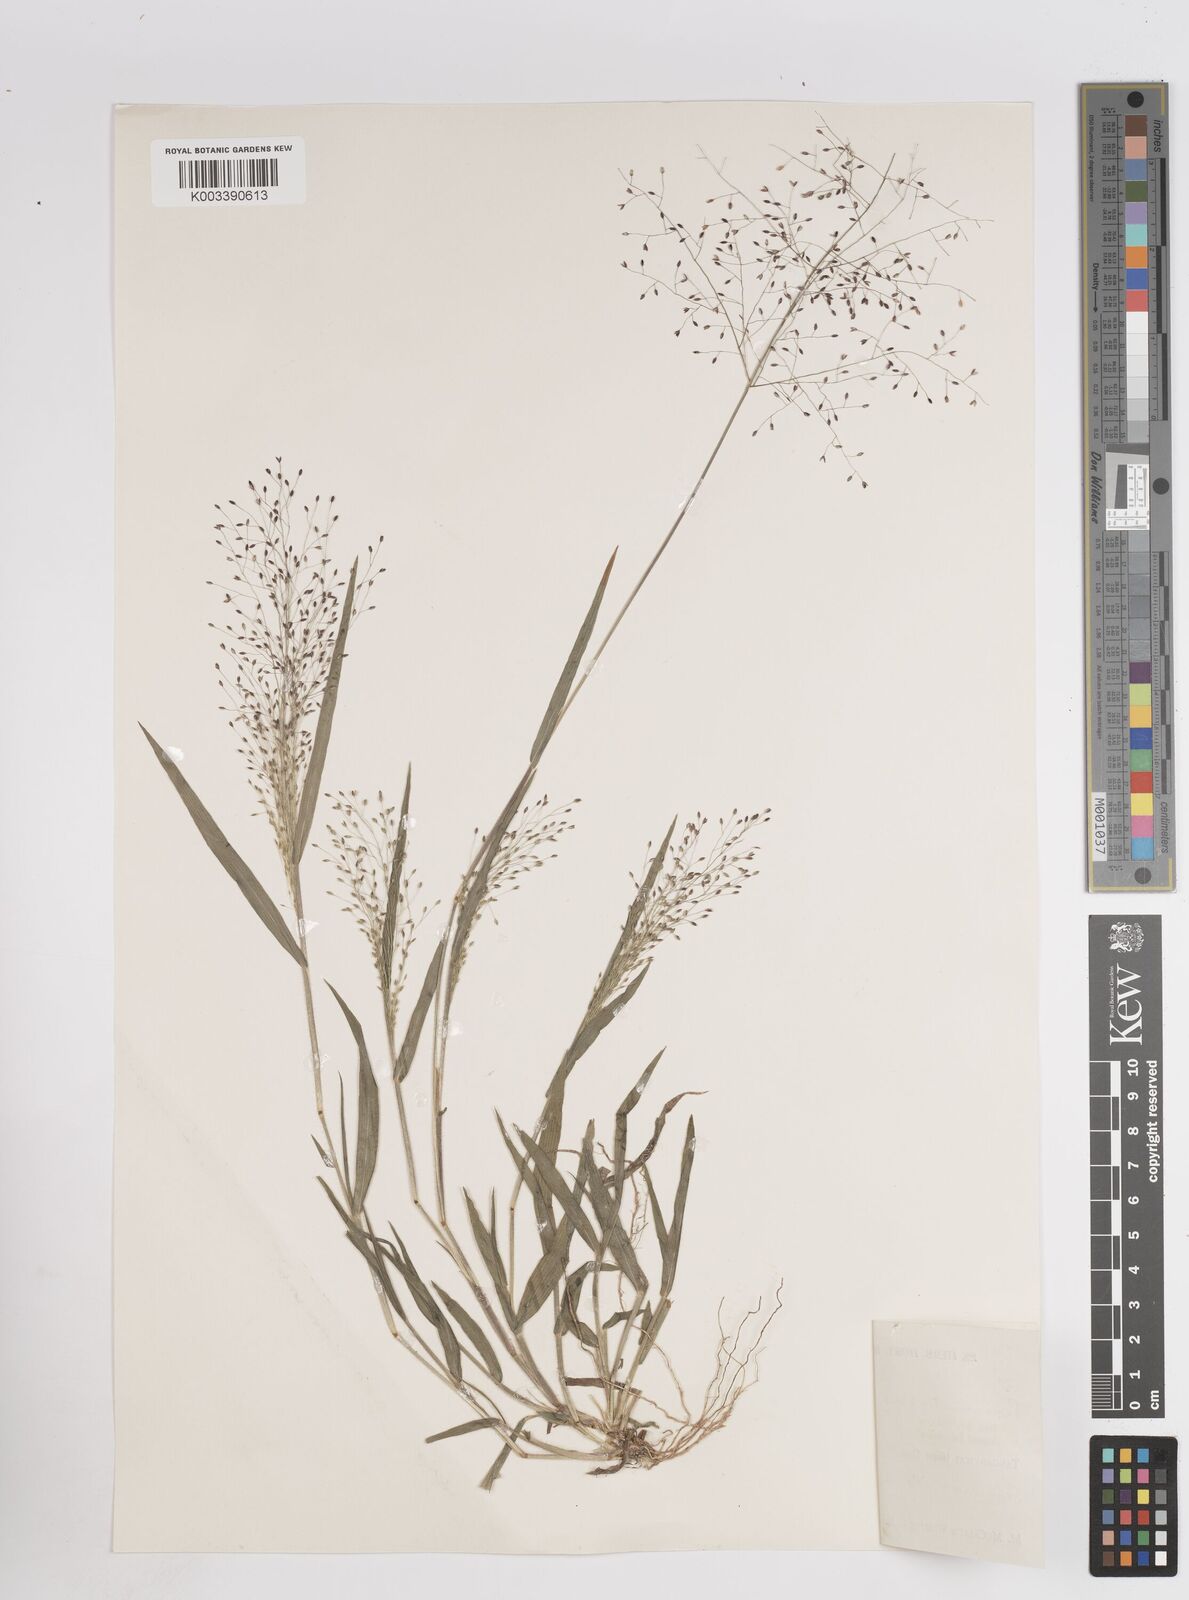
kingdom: Plantae
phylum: Tracheophyta
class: Liliopsida
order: Poales
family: Poaceae
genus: Panicum
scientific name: Panicum atrosanguineum
